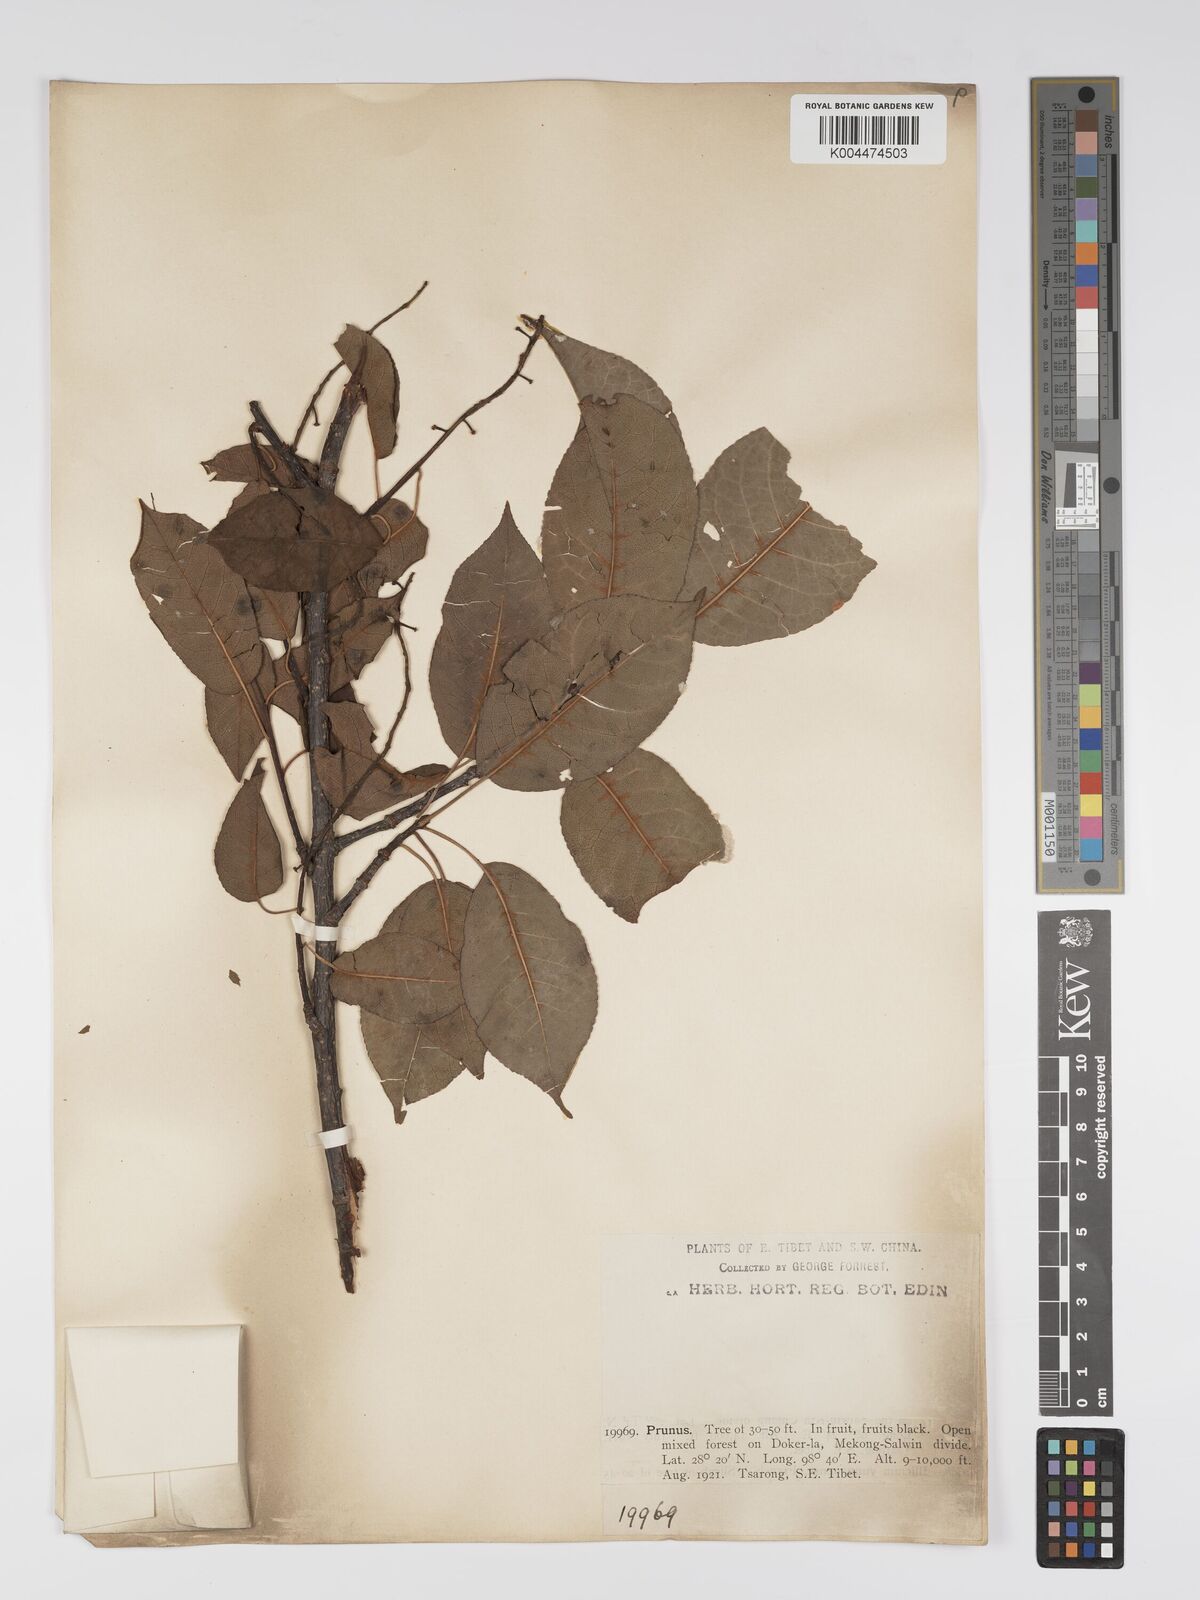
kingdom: Plantae
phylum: Tracheophyta
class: Magnoliopsida
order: Rosales
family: Rosaceae
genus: Prunus
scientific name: Prunus
